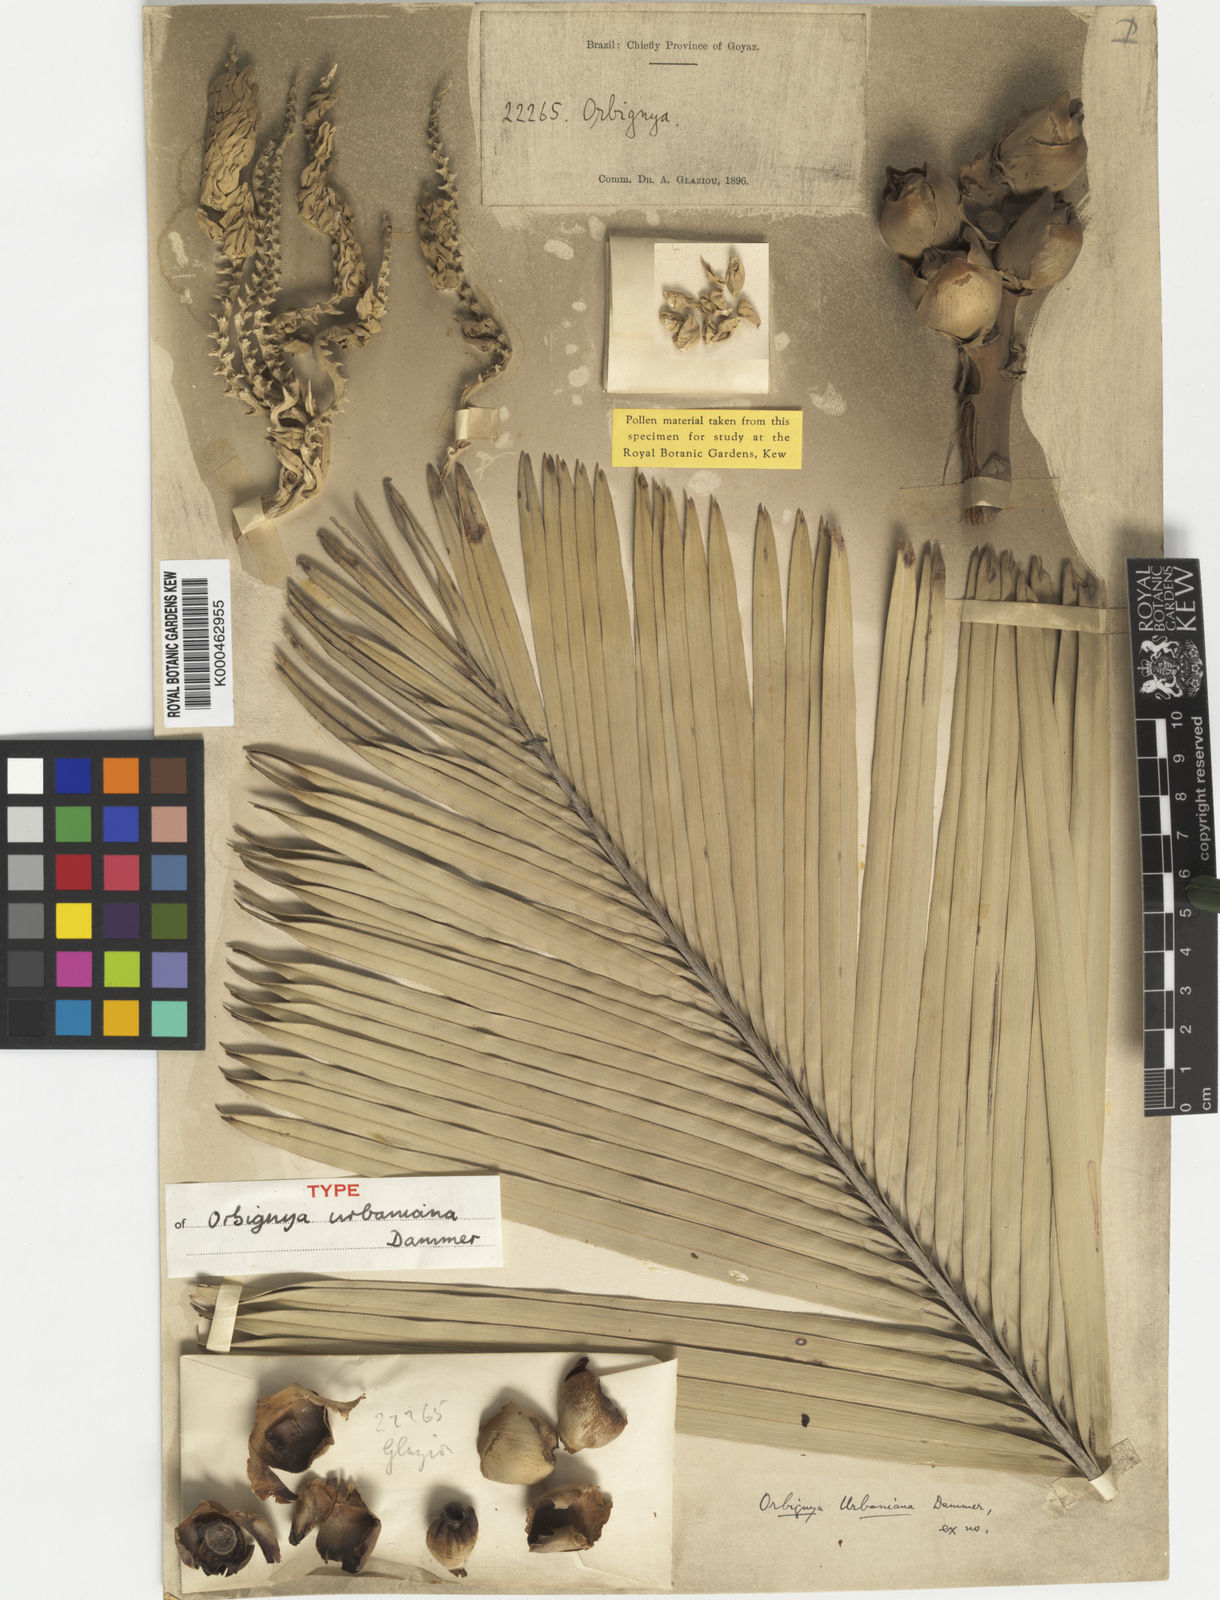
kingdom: Plantae
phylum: Tracheophyta
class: Liliopsida
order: Arecales
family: Arecaceae
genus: Attalea
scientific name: Attalea eichleri
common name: Large-fruit yagua palm
